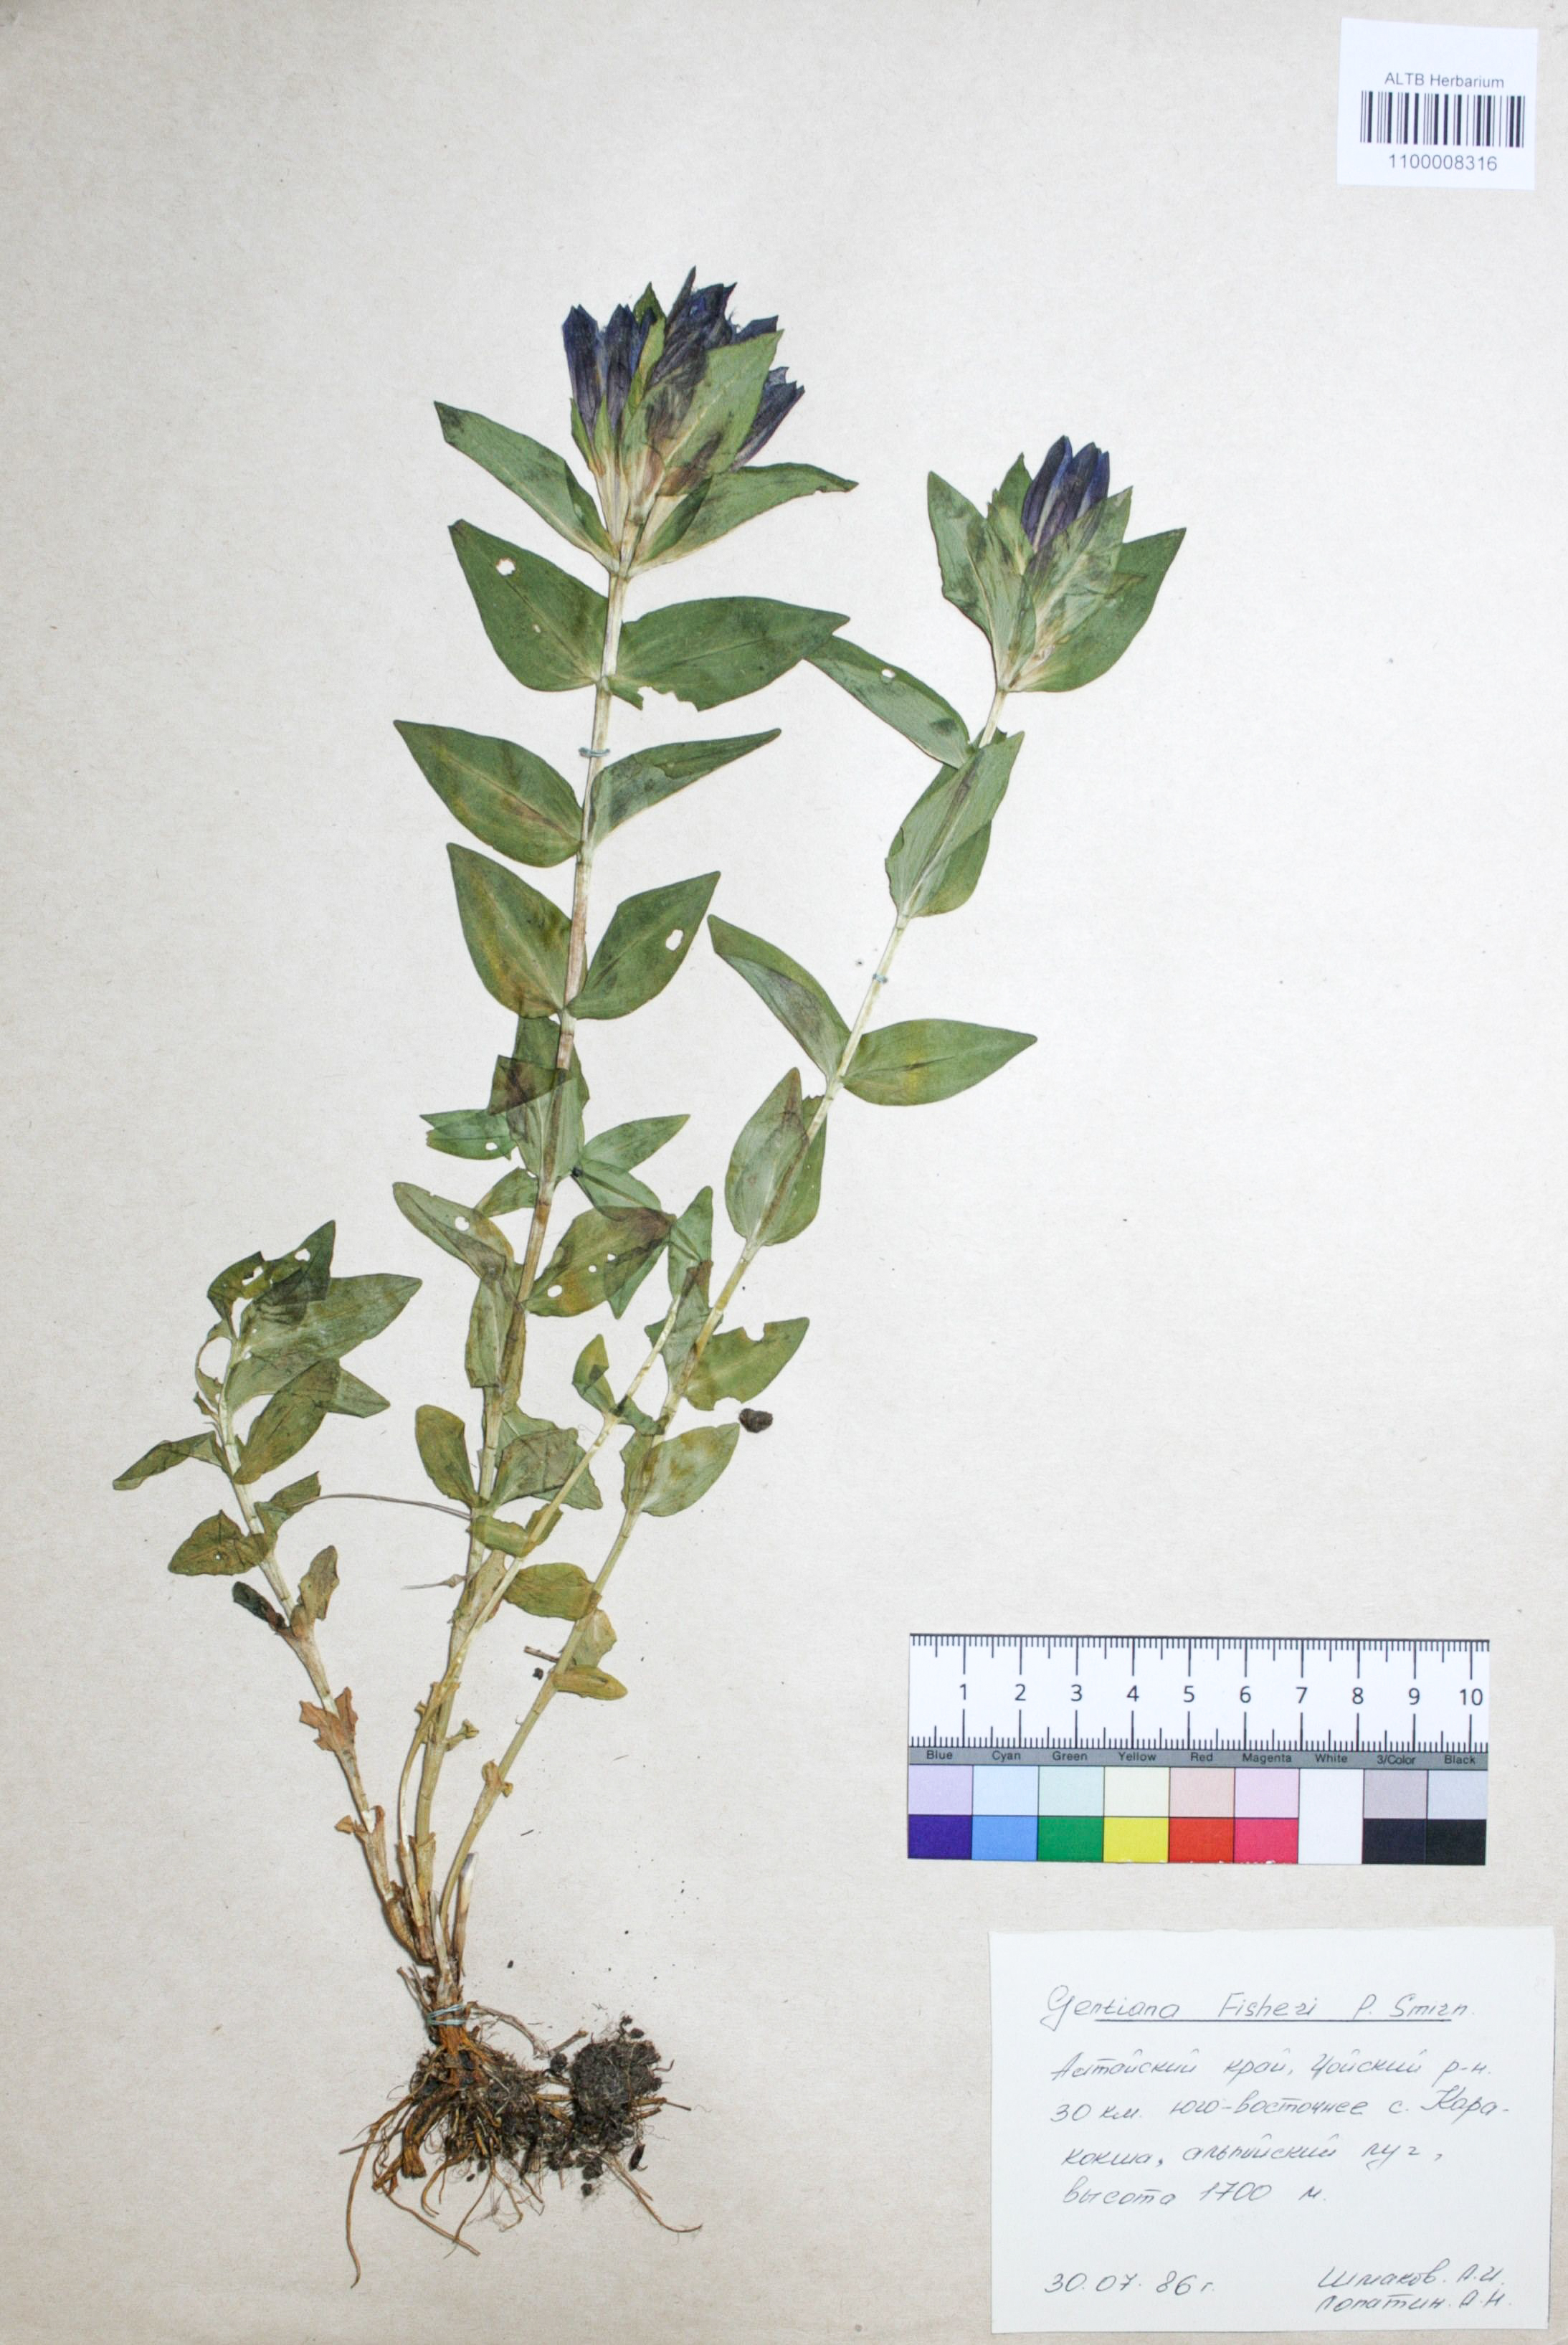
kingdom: Plantae
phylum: Tracheophyta
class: Magnoliopsida
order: Gentianales
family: Gentianaceae
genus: Gentiana
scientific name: Gentiana dschungarica
